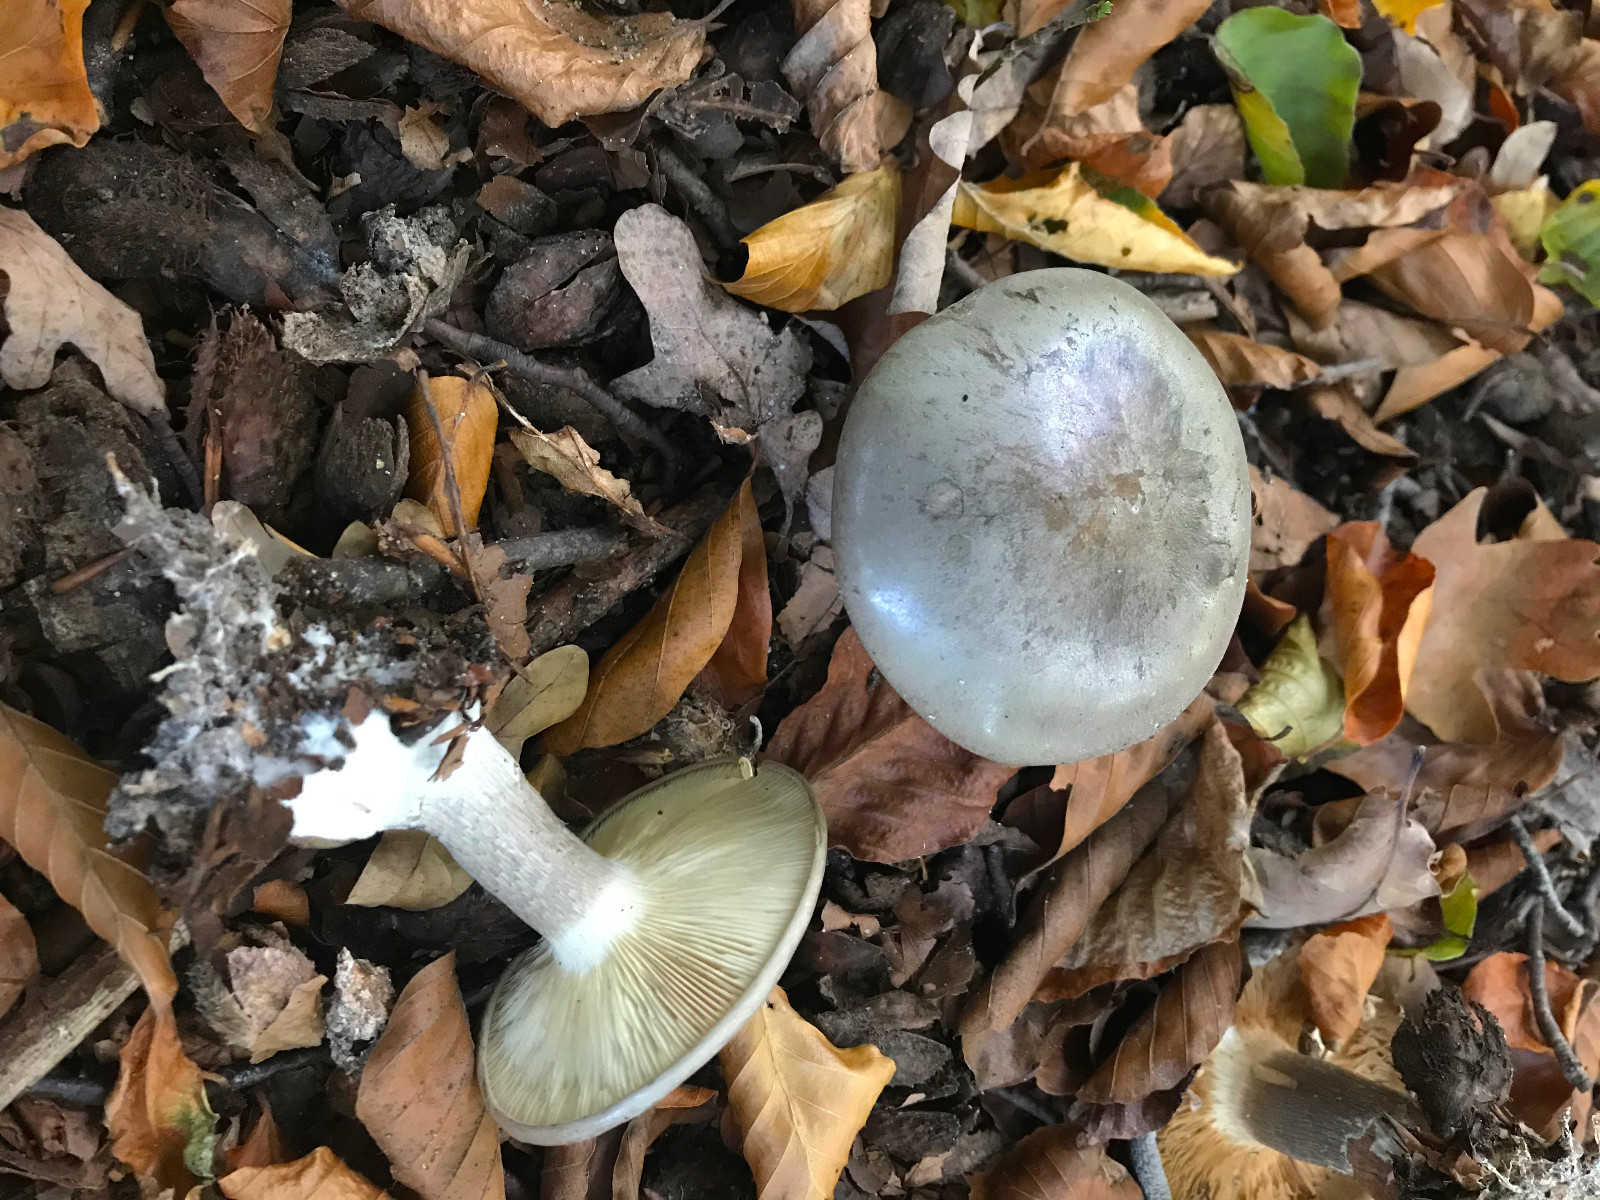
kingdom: Fungi
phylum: Basidiomycota
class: Agaricomycetes
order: Agaricales
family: Tricholomataceae
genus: Clitocybe
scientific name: Clitocybe nebularis
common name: tåge-tragthat
